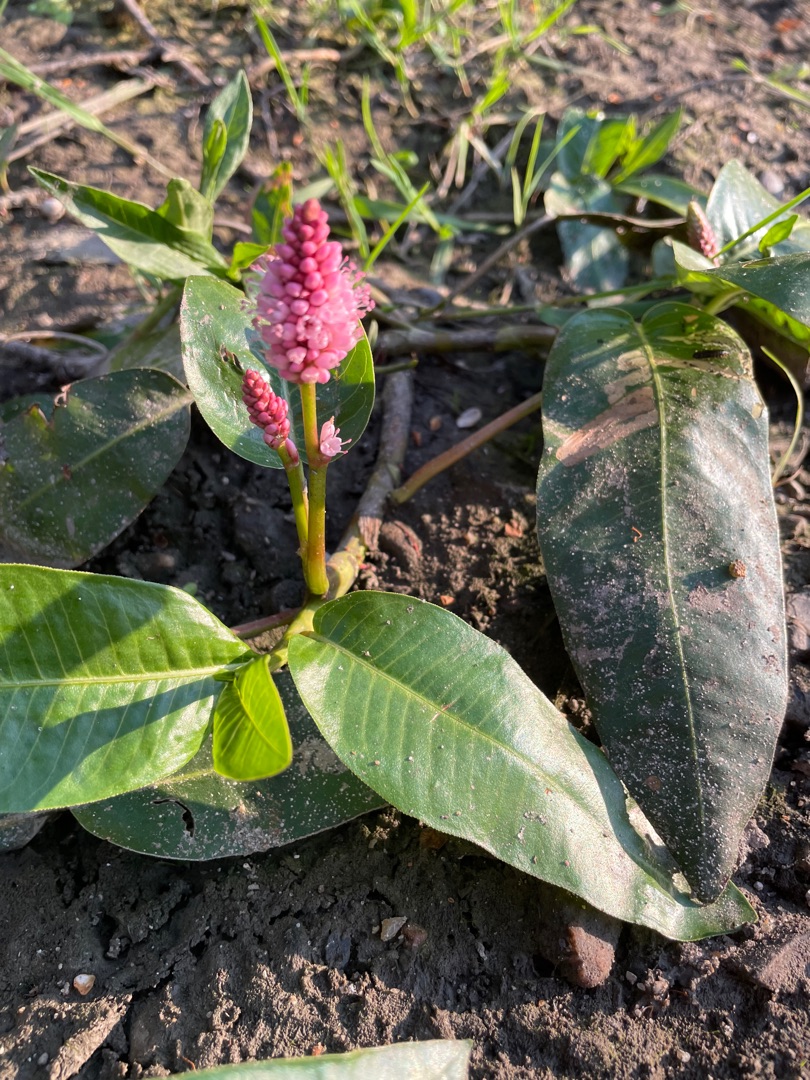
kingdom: Plantae
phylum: Tracheophyta
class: Magnoliopsida
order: Caryophyllales
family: Polygonaceae
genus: Persicaria
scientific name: Persicaria amphibia
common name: Vand-pileurt
